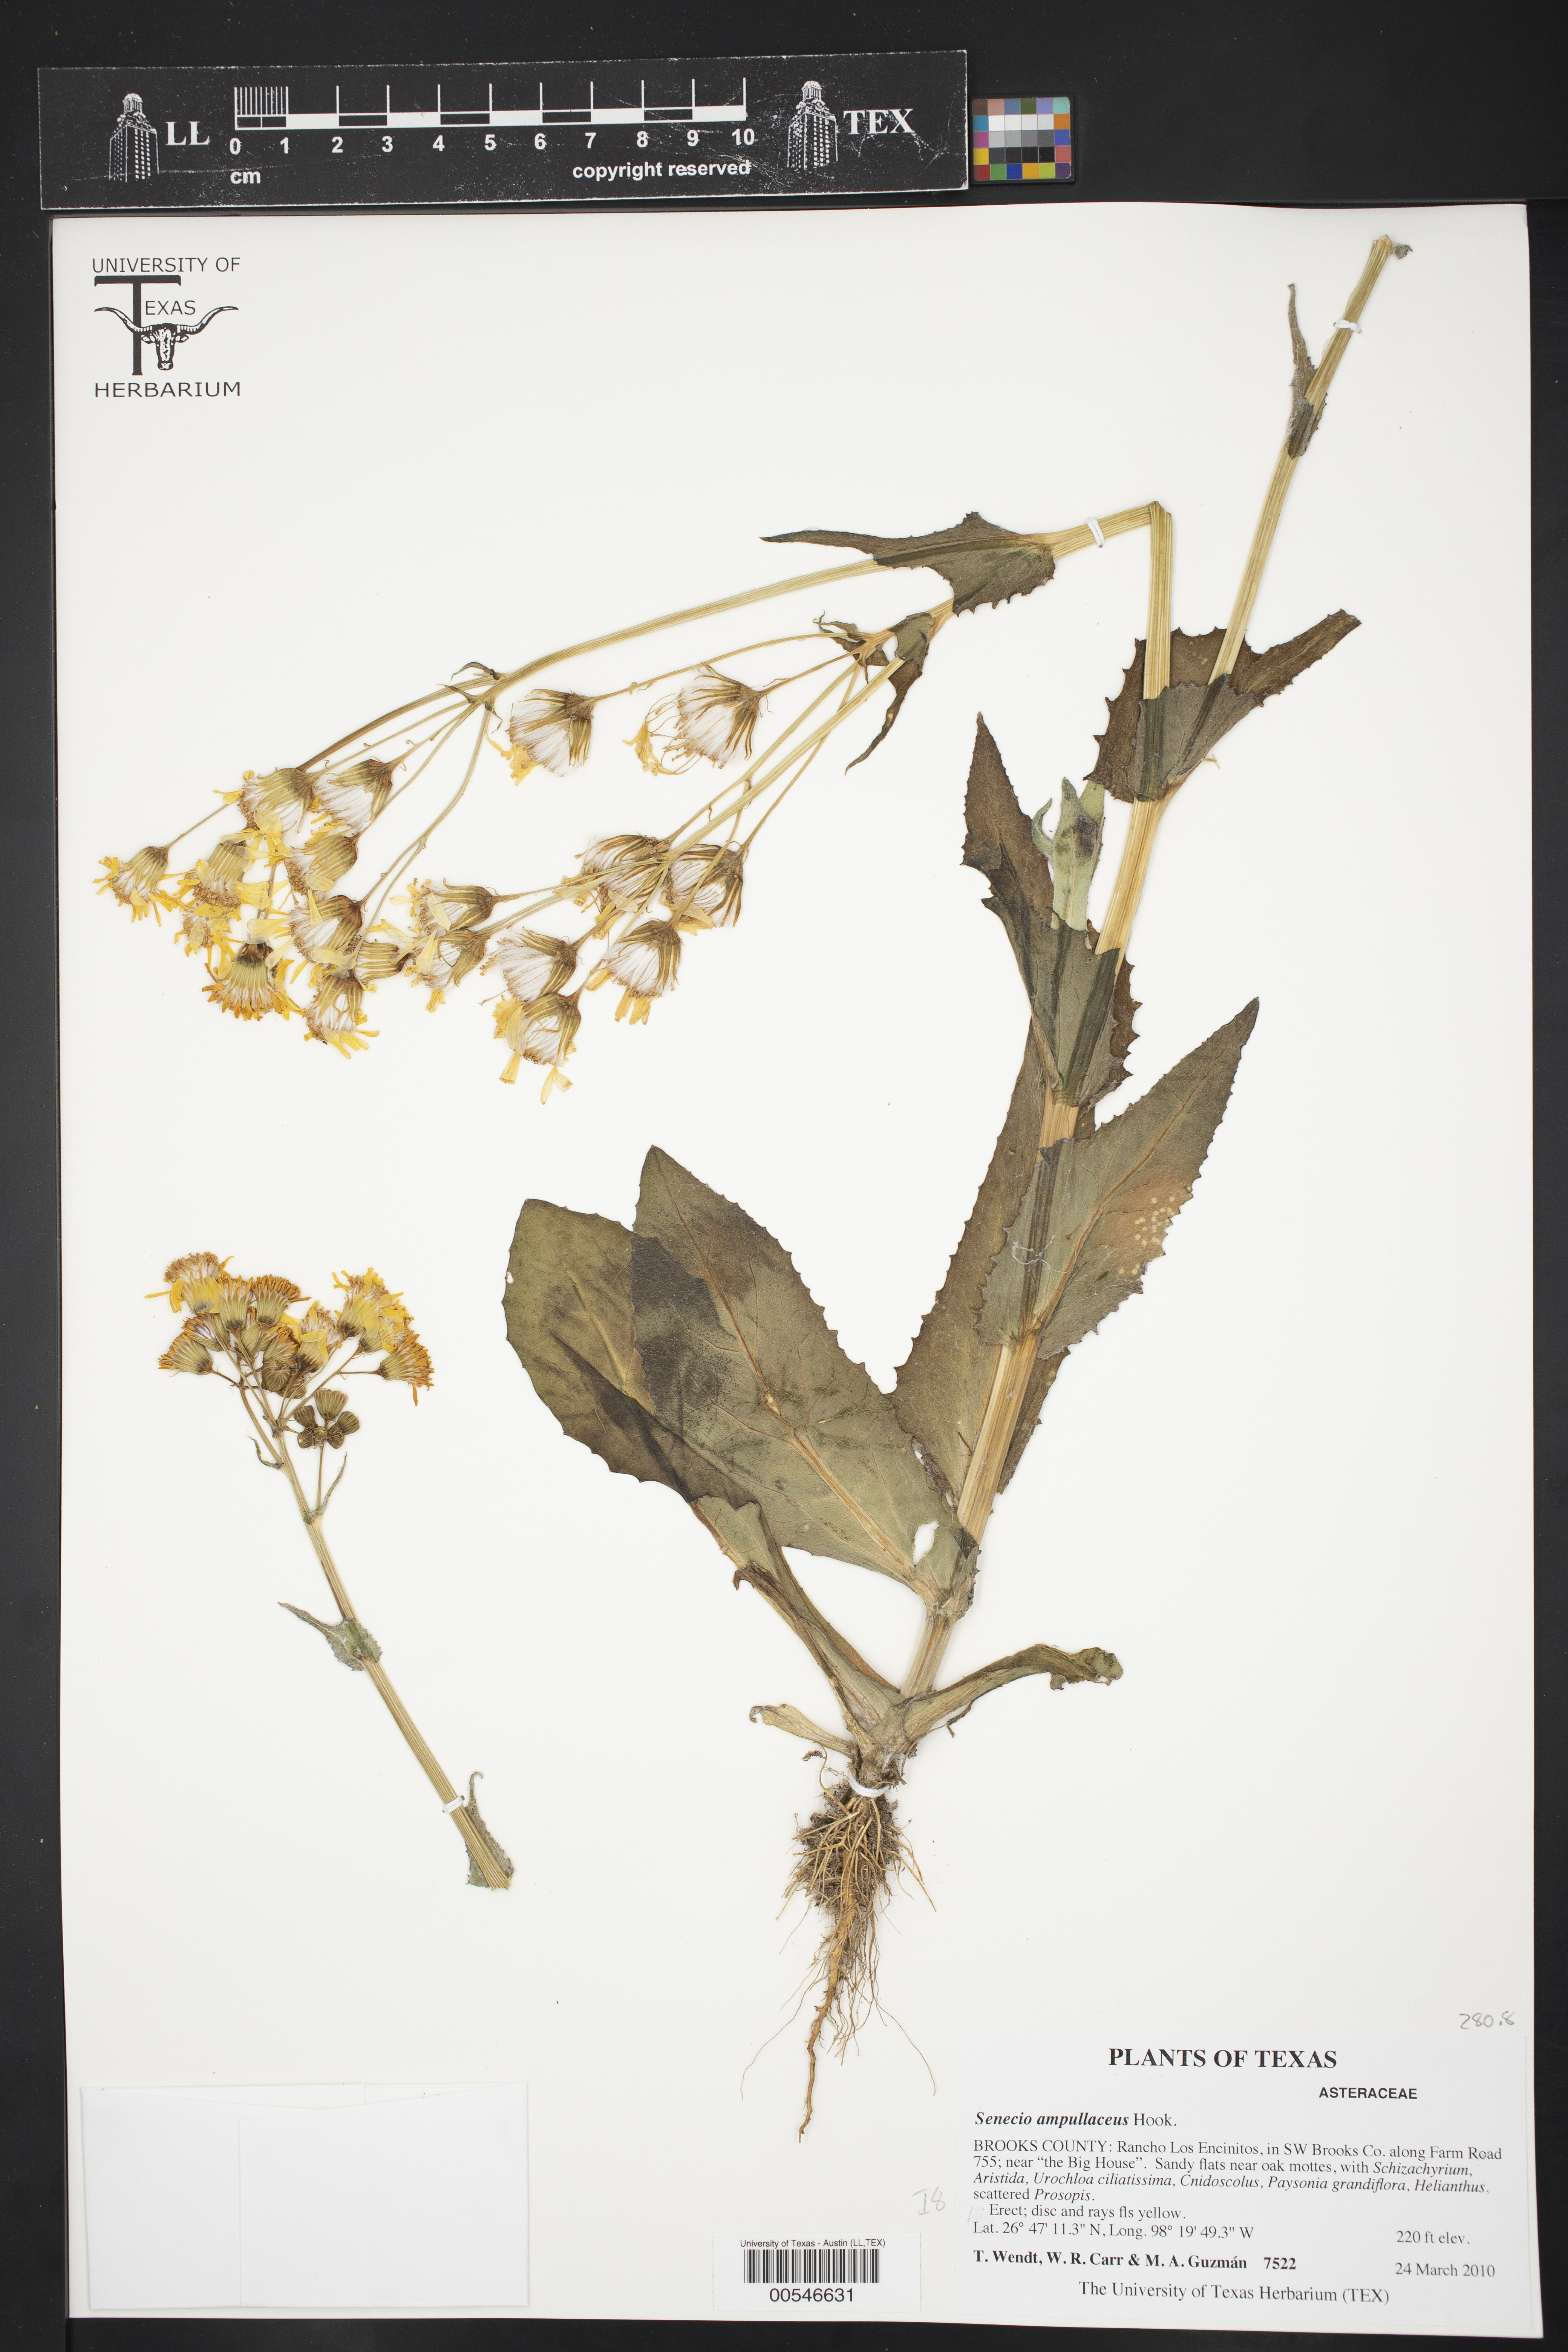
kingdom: Plantae
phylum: Tracheophyta
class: Magnoliopsida
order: Asterales
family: Asteraceae
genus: Senecio
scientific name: Senecio ampullaceus
